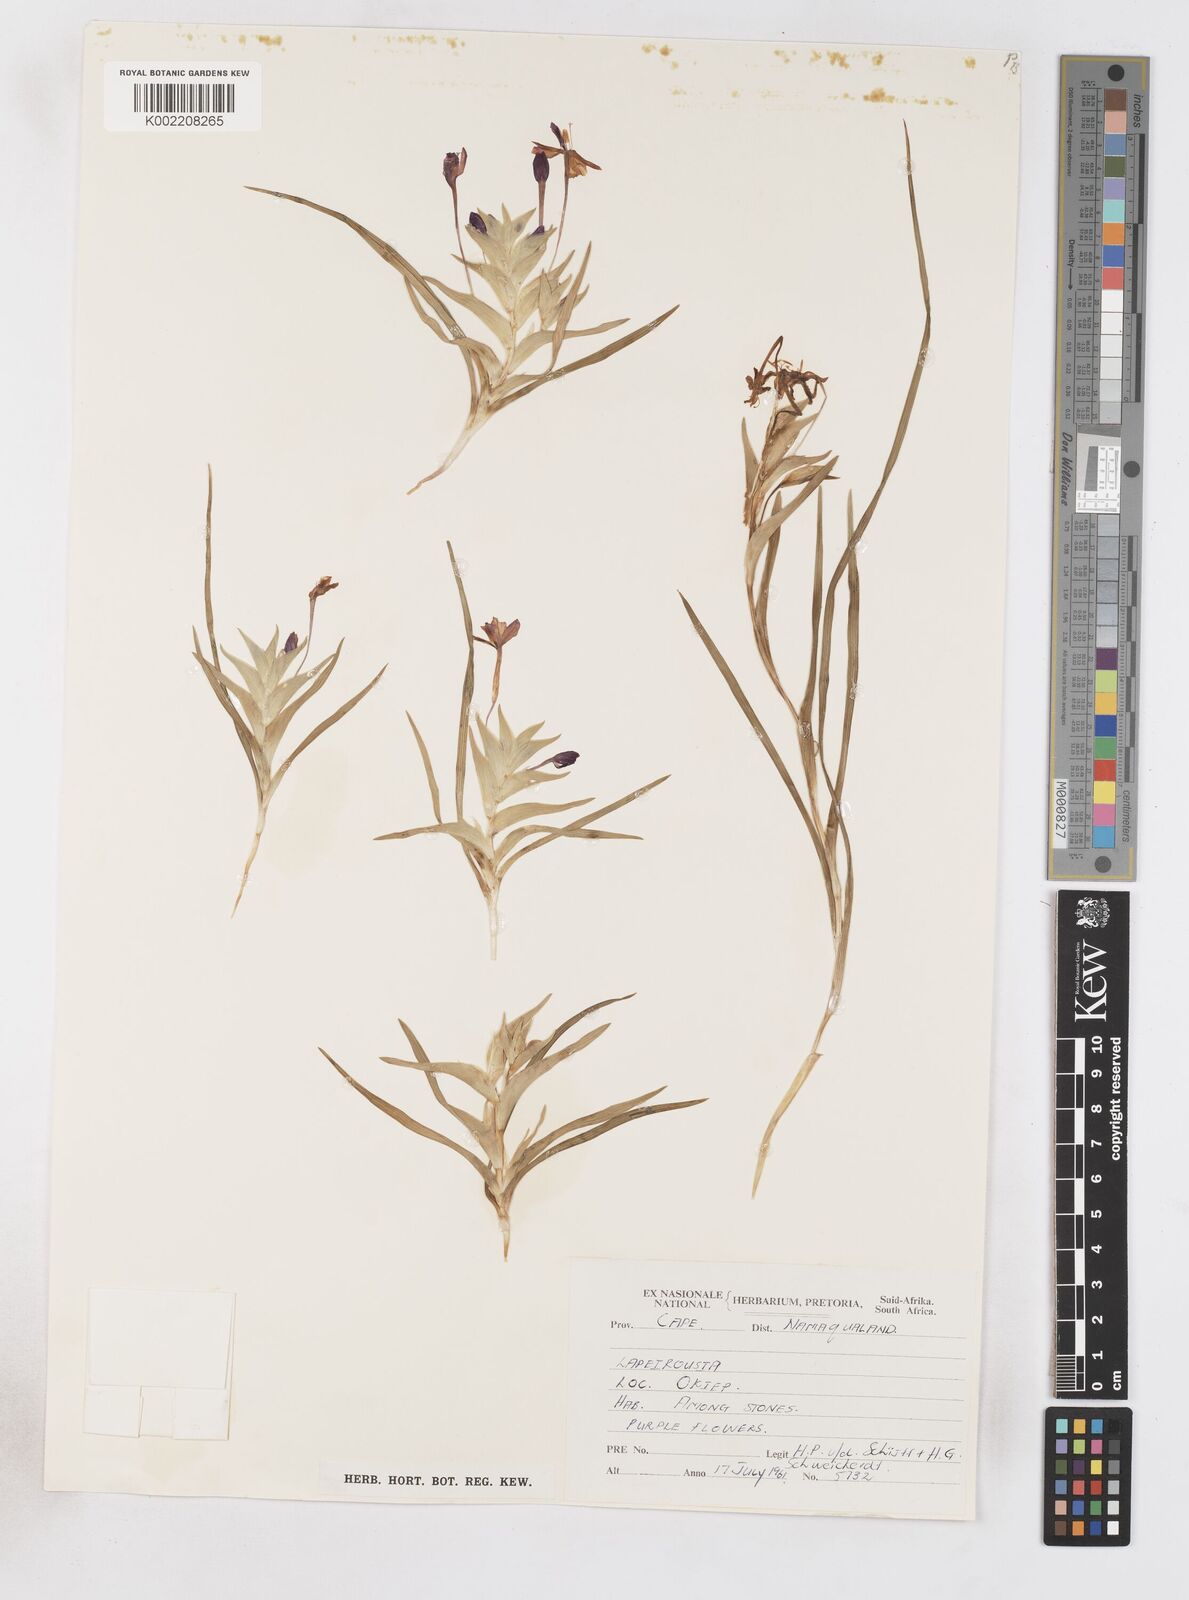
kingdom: Plantae
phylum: Tracheophyta
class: Liliopsida
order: Asparagales
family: Iridaceae
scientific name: Iridaceae
